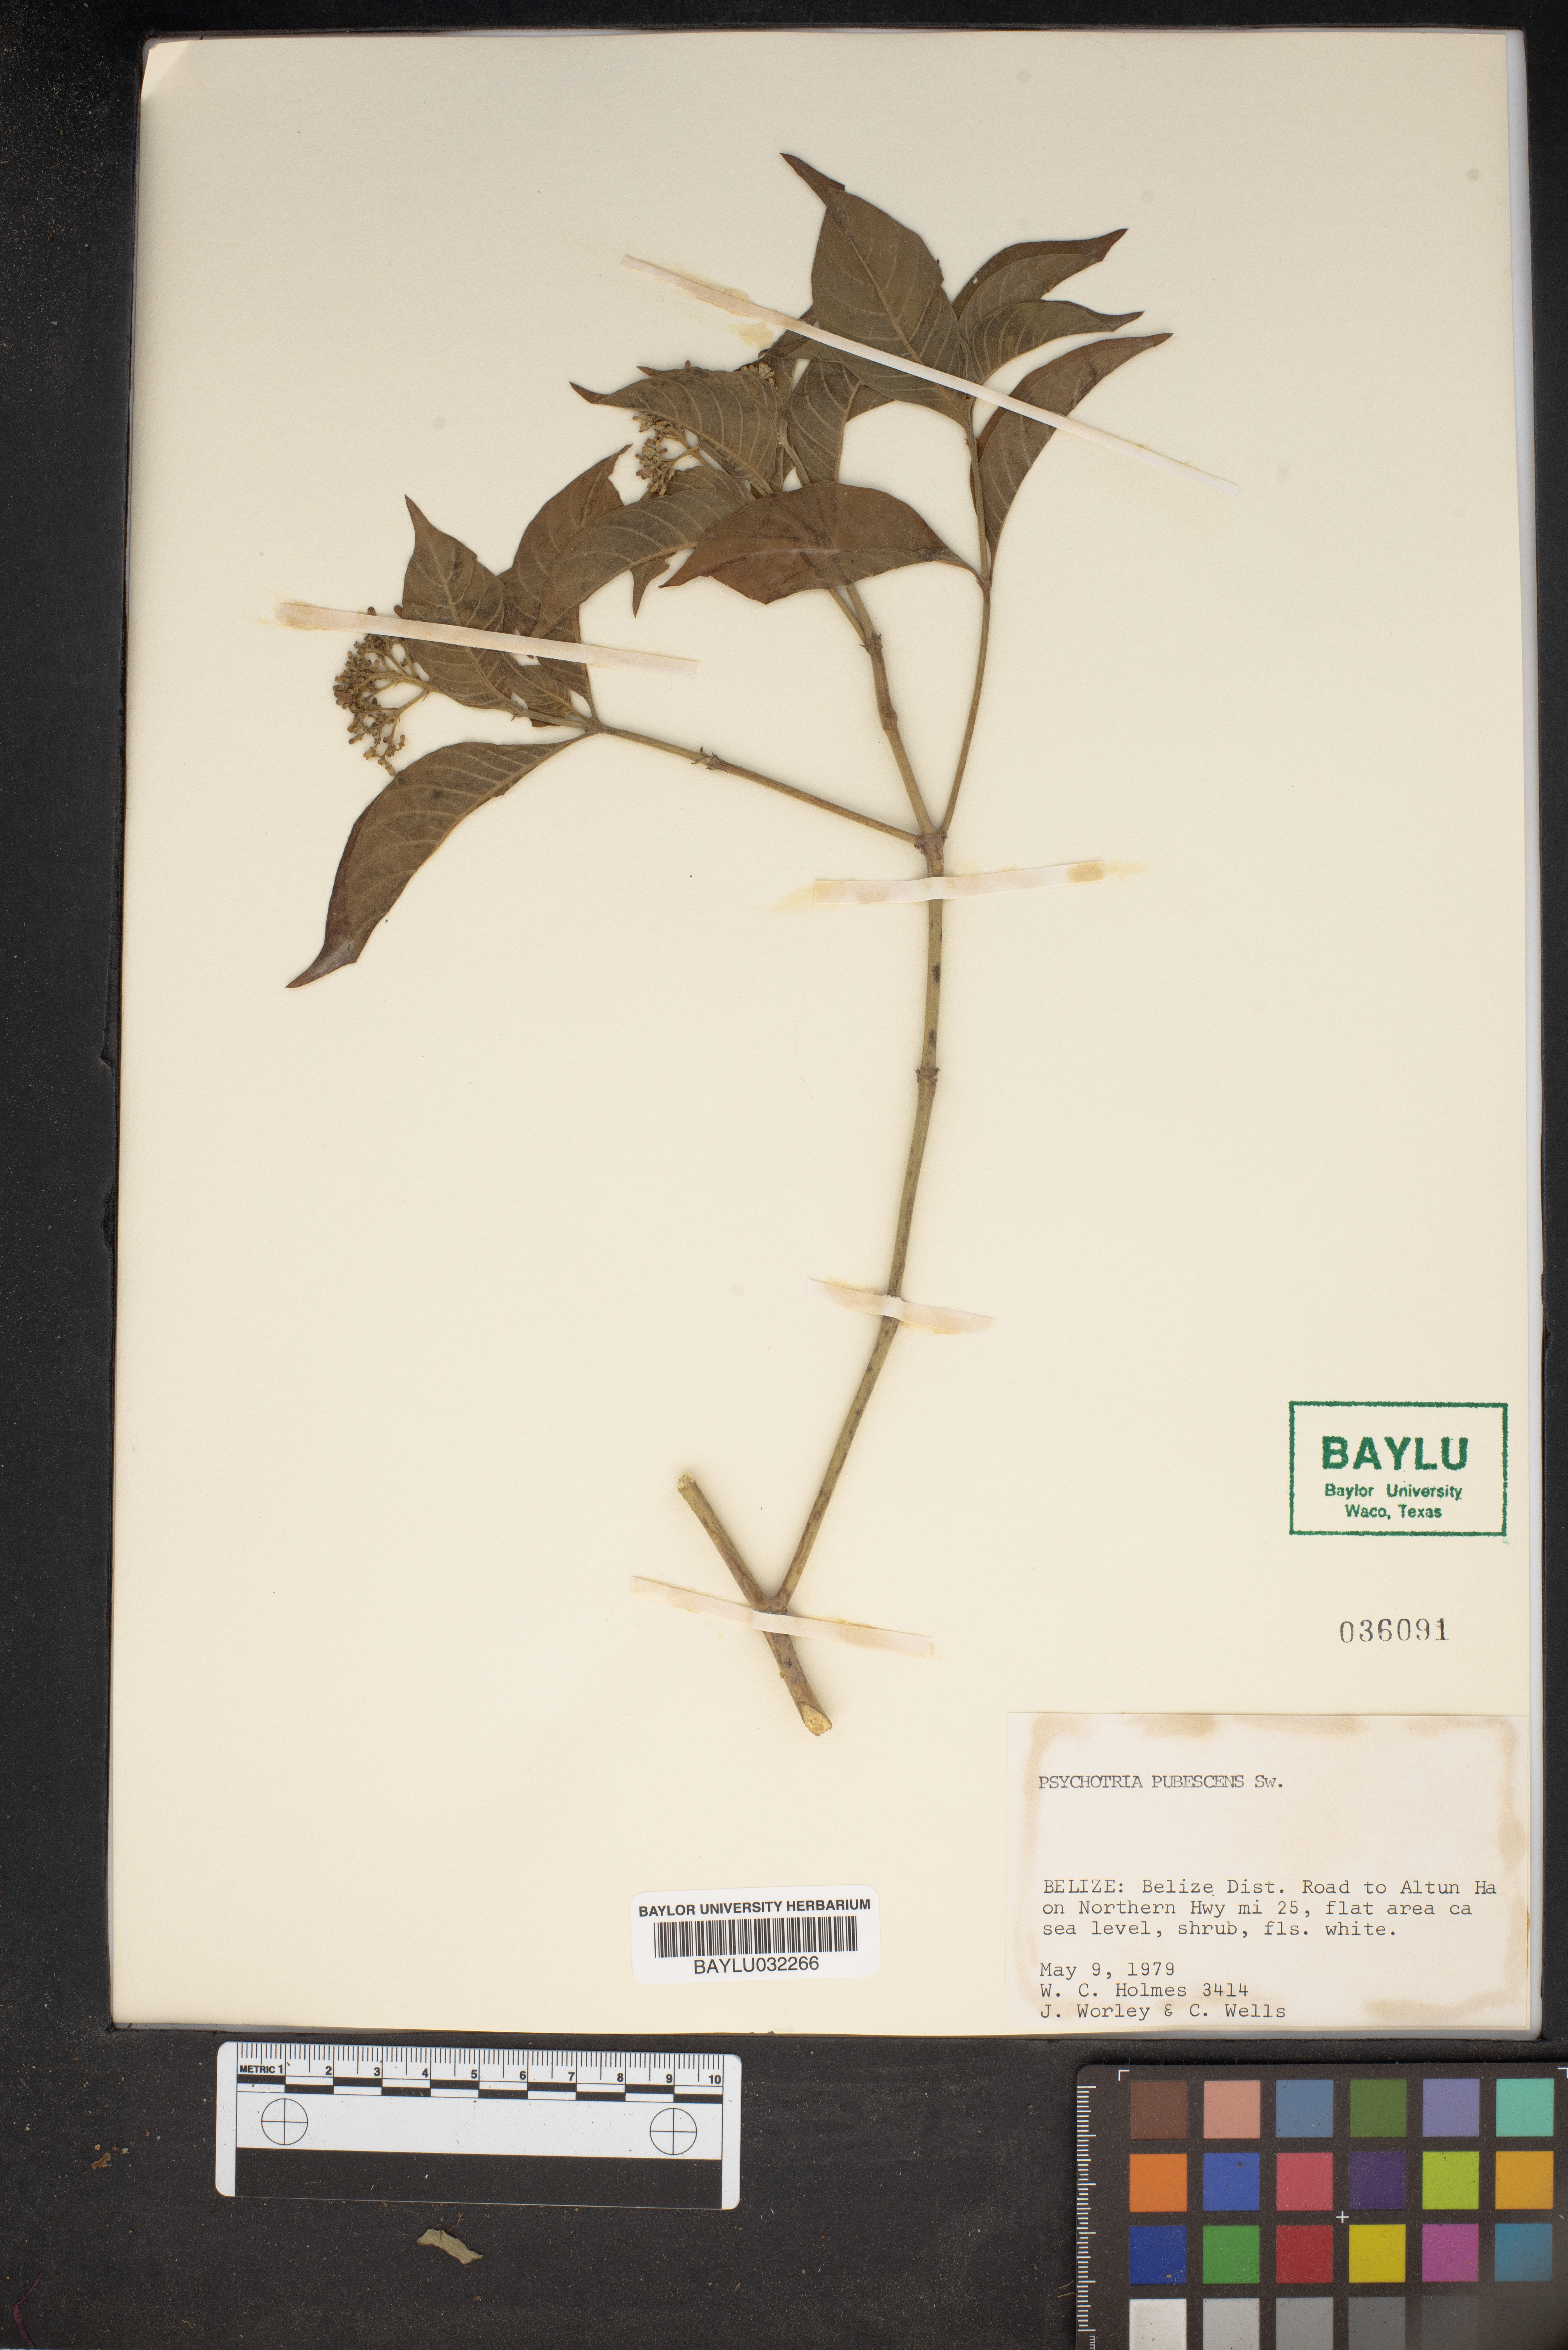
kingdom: Plantae
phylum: Tracheophyta
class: Magnoliopsida
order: Gentianales
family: Rubiaceae
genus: Palicourea
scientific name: Palicourea pubescens
